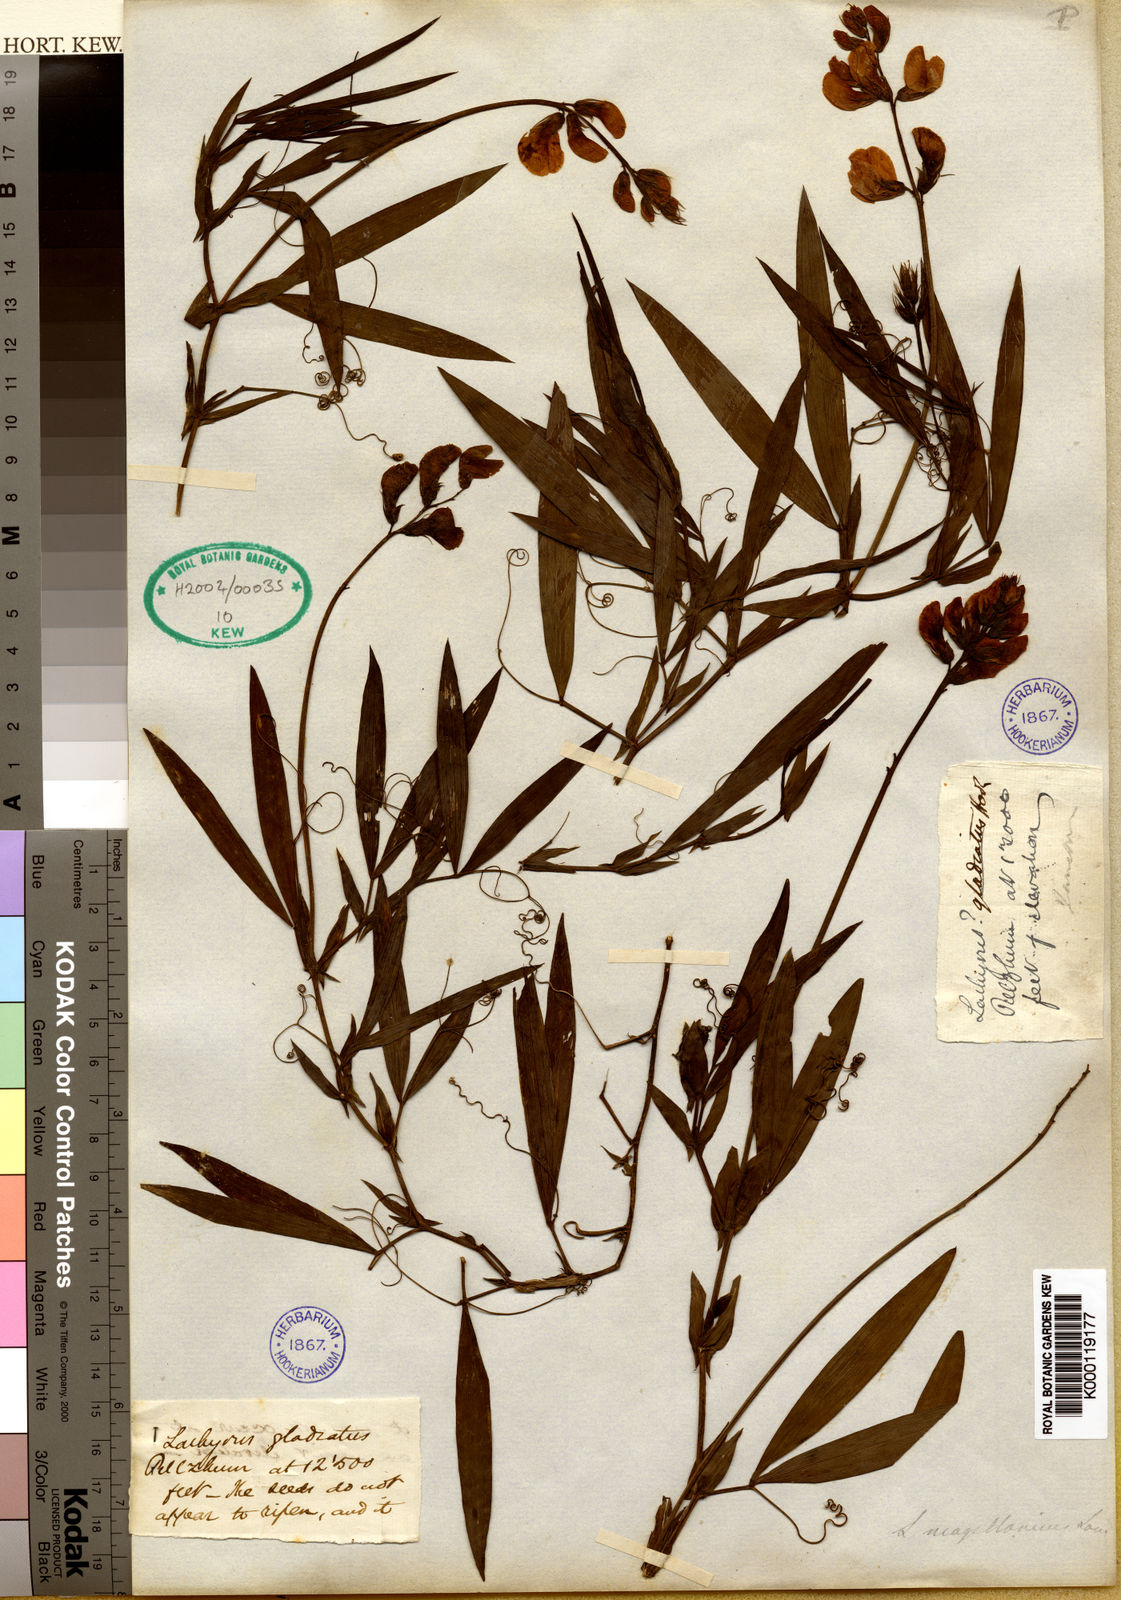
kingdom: Plantae
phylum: Tracheophyta
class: Magnoliopsida
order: Fabales
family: Fabaceae
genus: Lathyrus
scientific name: Lathyrus magellanicus
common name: Lord anson's pea
